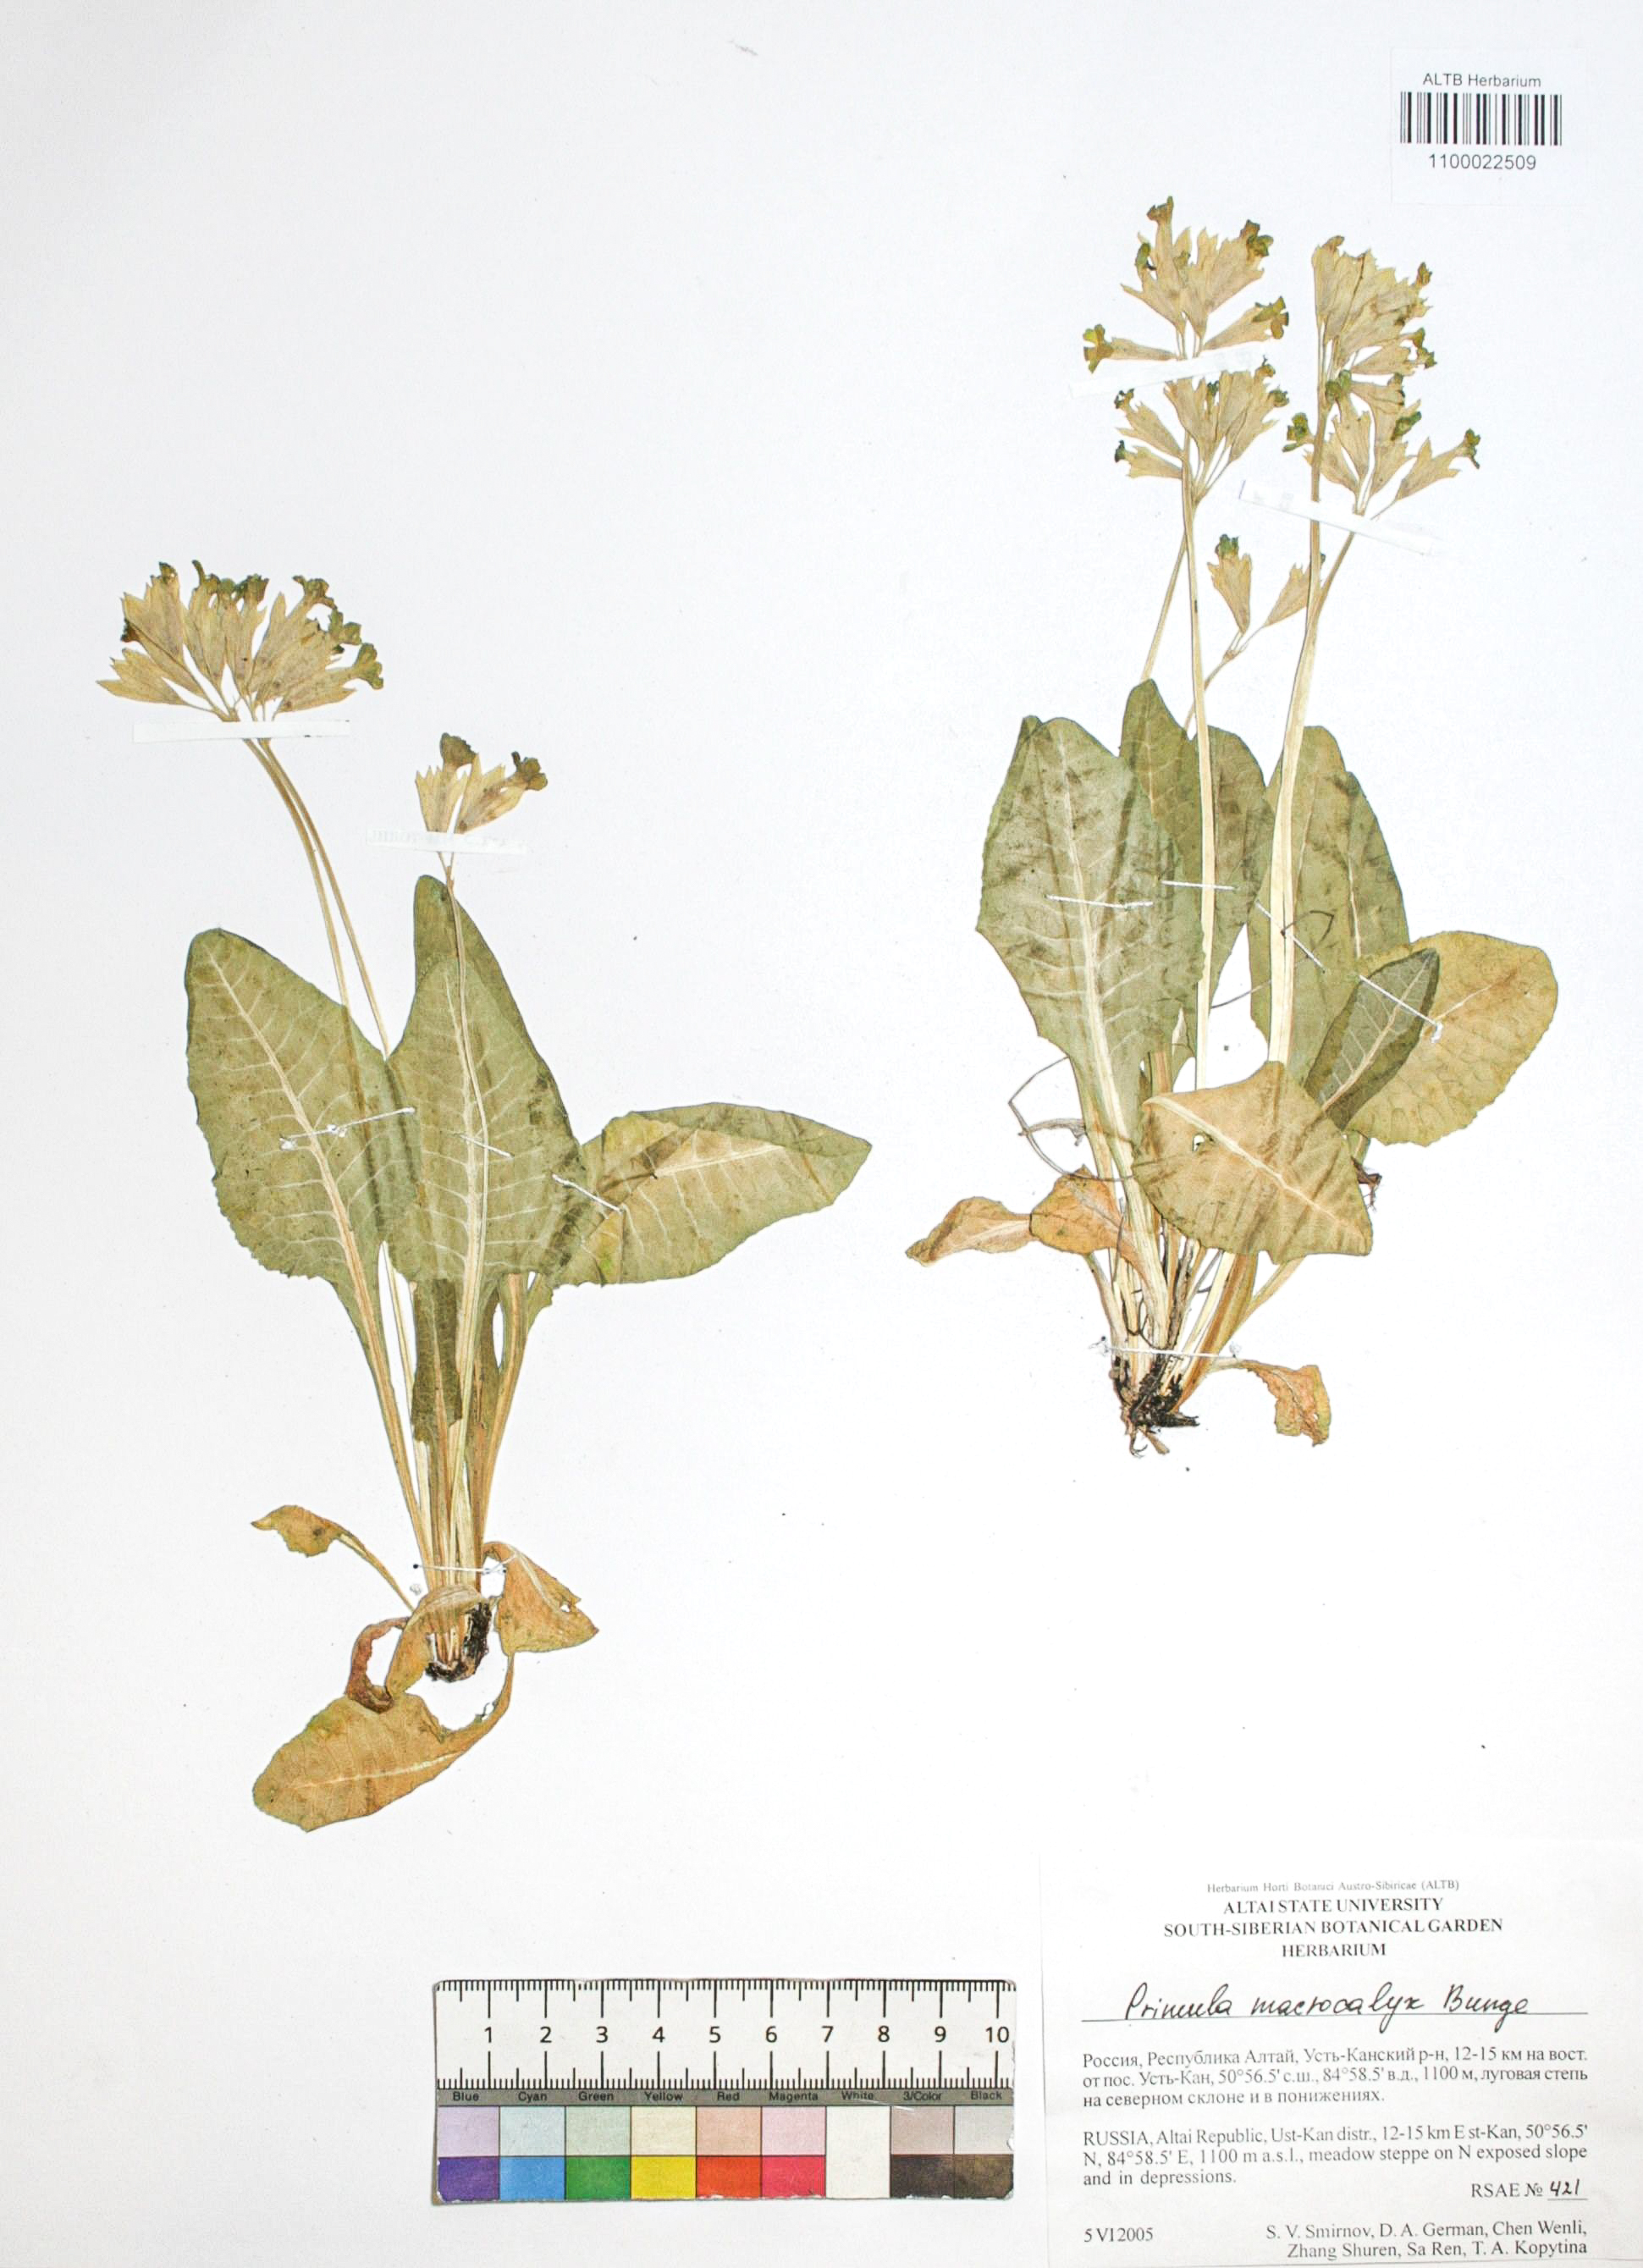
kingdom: Plantae
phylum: Tracheophyta
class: Magnoliopsida
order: Ericales
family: Primulaceae
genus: Primula
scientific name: Primula veris
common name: Cowslip
